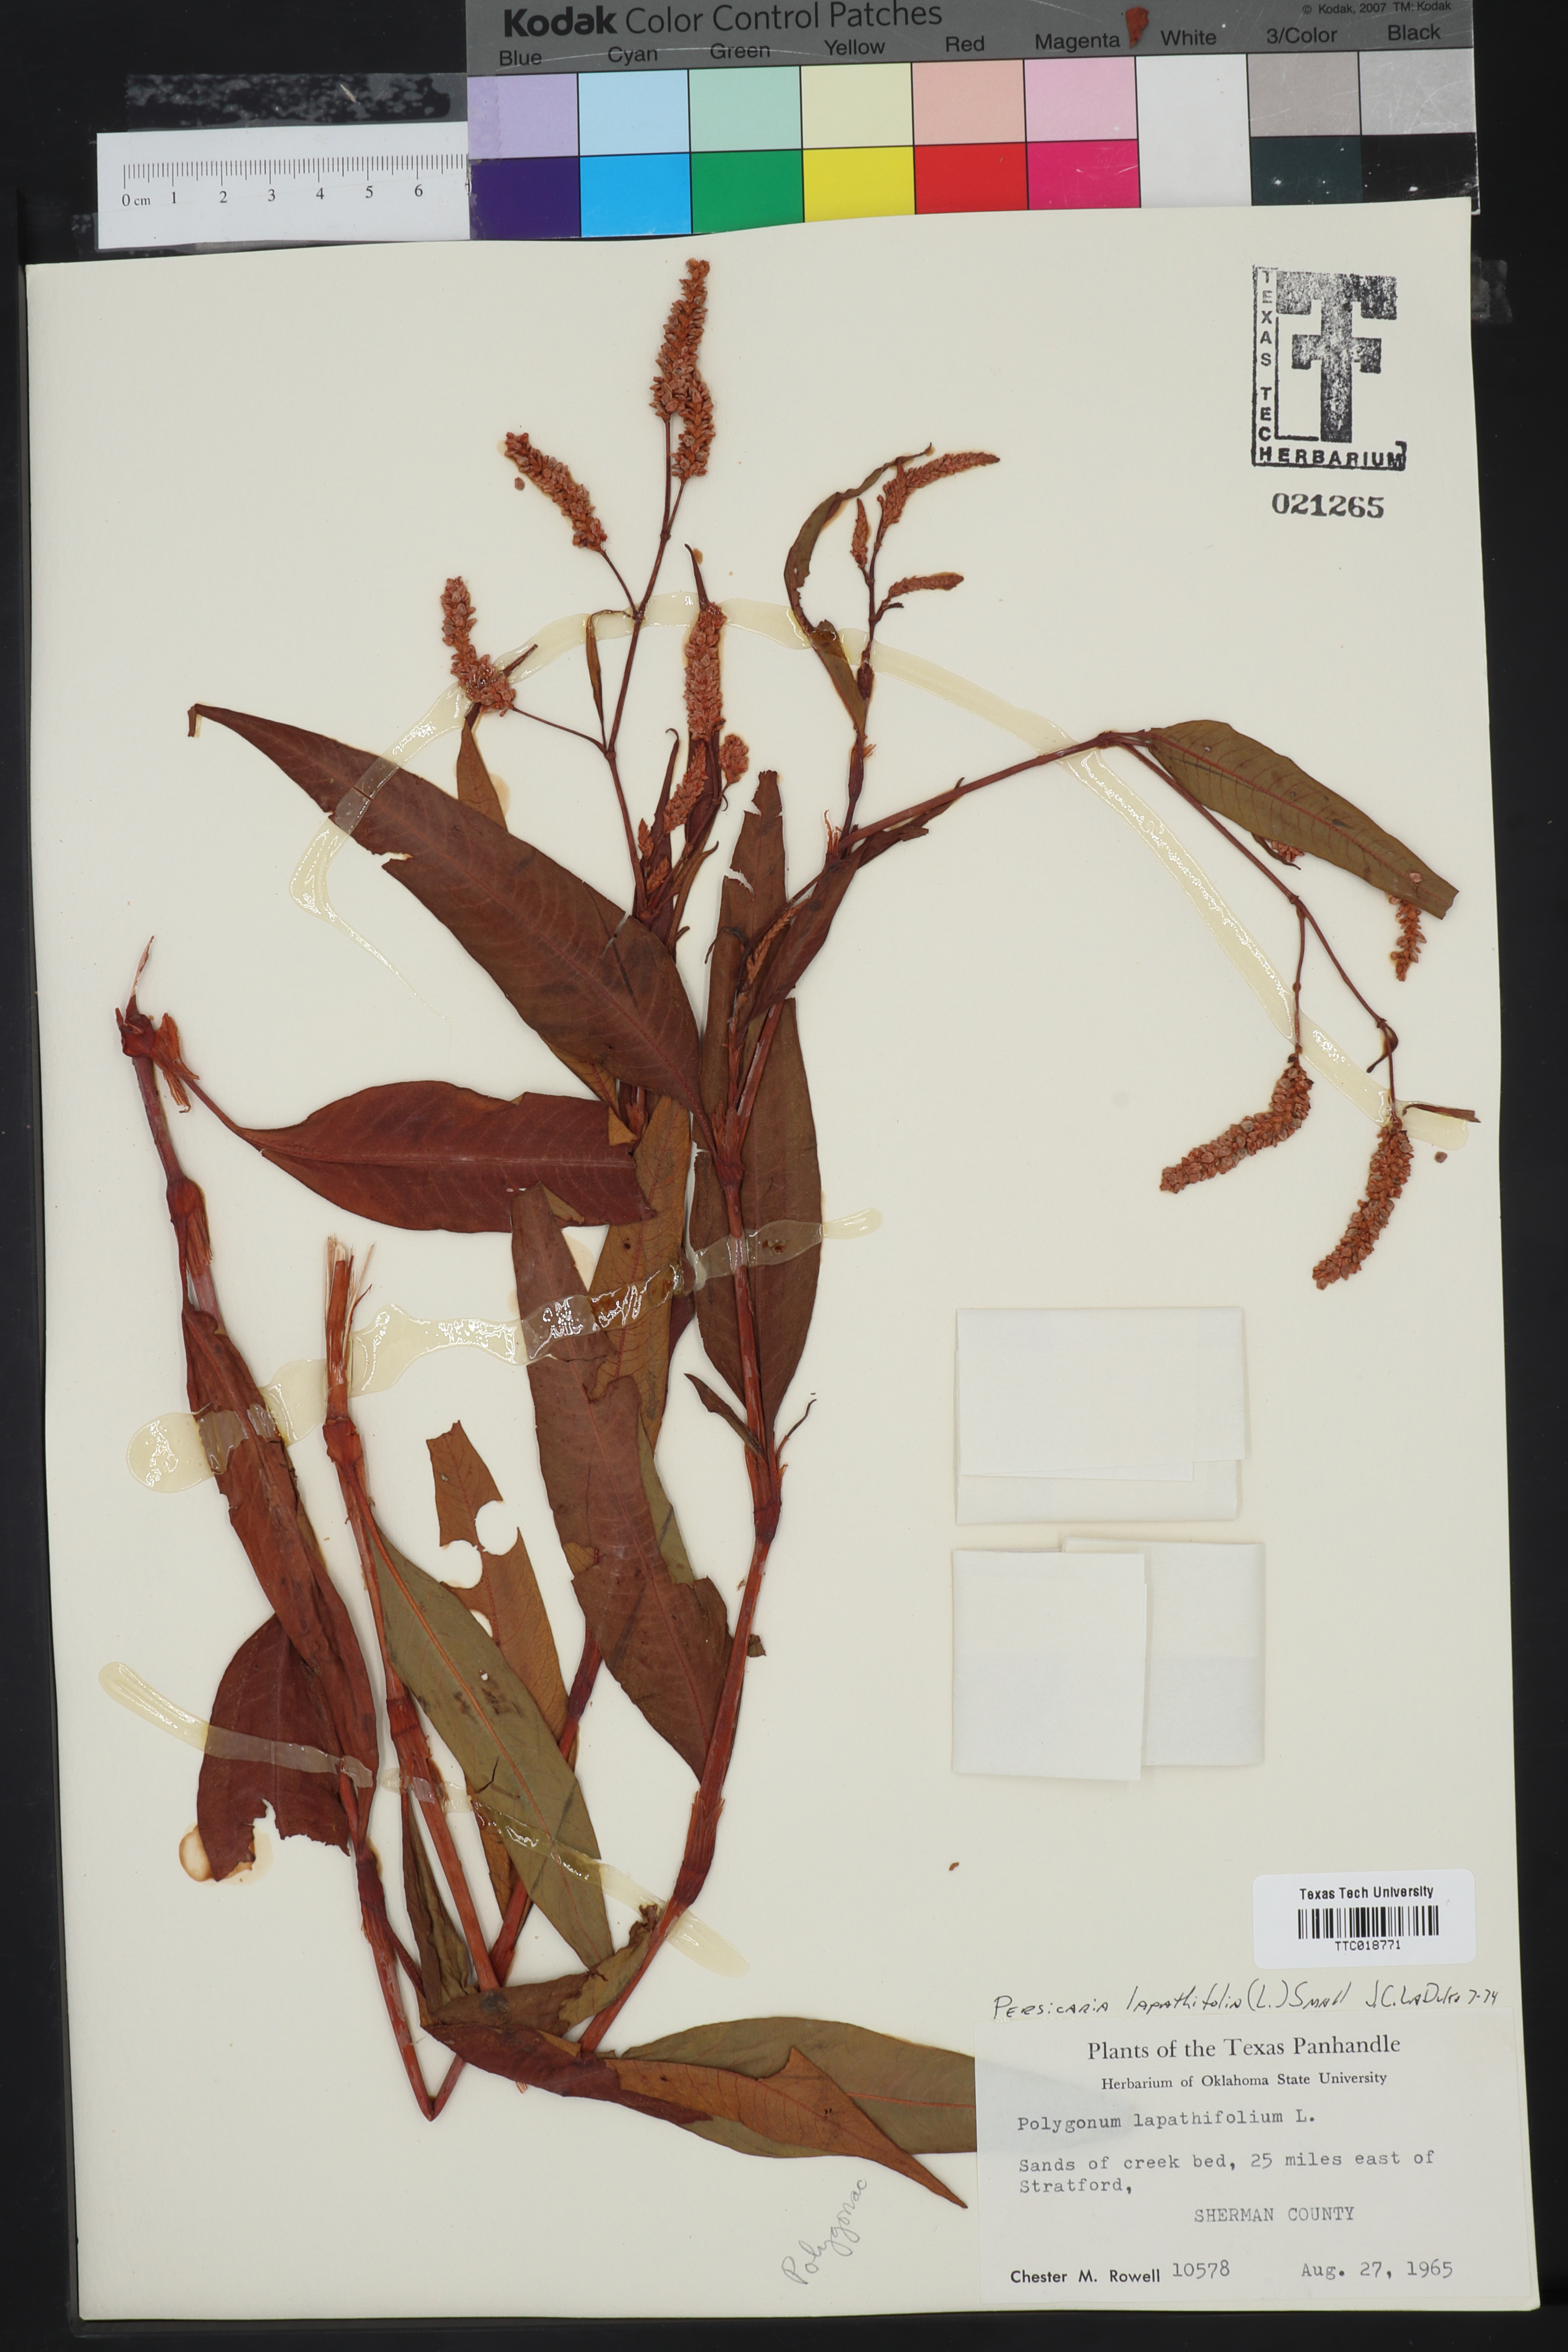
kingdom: Plantae
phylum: Tracheophyta
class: Magnoliopsida
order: Caryophyllales
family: Polygonaceae
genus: Persicaria
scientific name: Persicaria lapathifolia
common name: Curlytop knotweed
